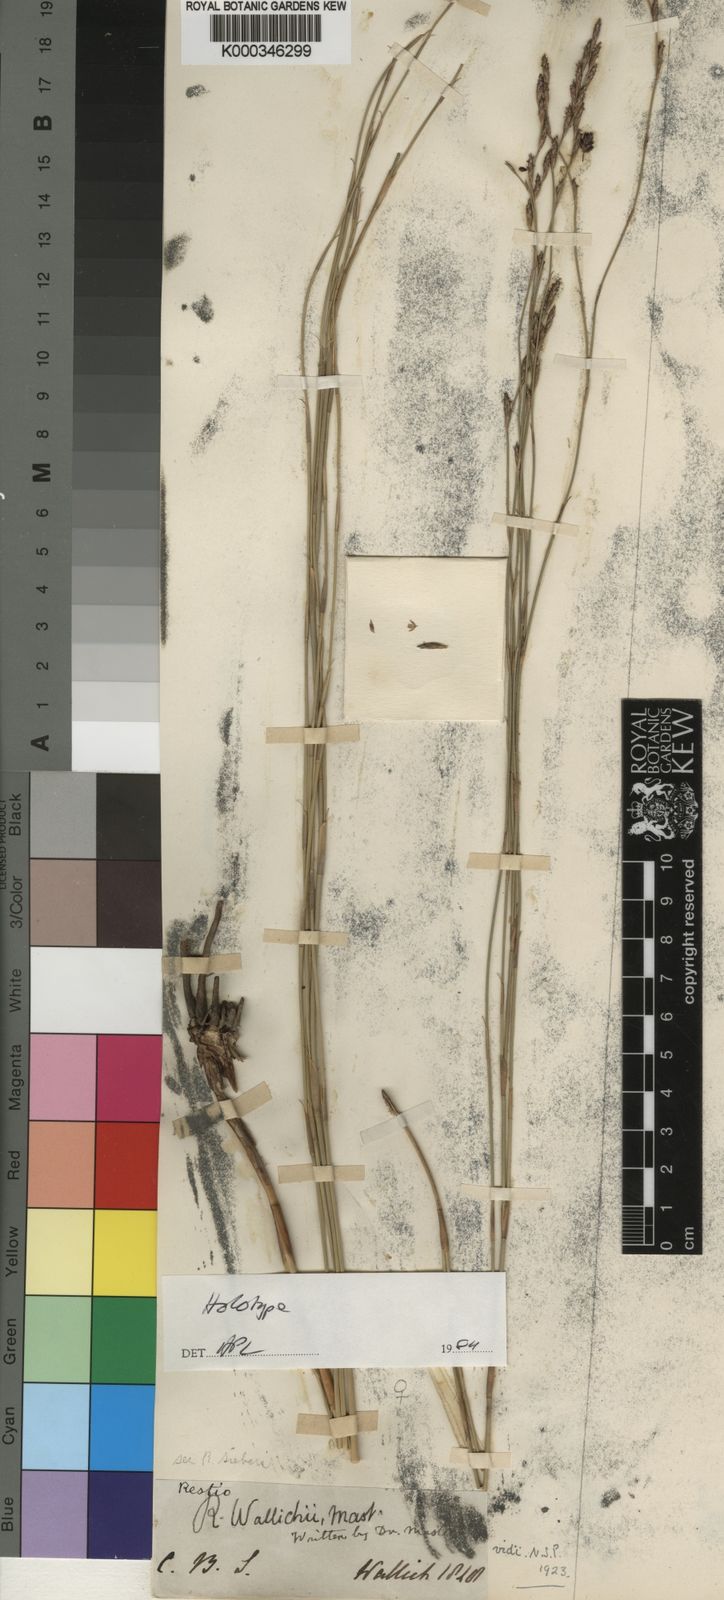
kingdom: Plantae
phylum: Tracheophyta
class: Liliopsida
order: Poales
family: Restionaceae
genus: Restio
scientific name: Restio wallichii
